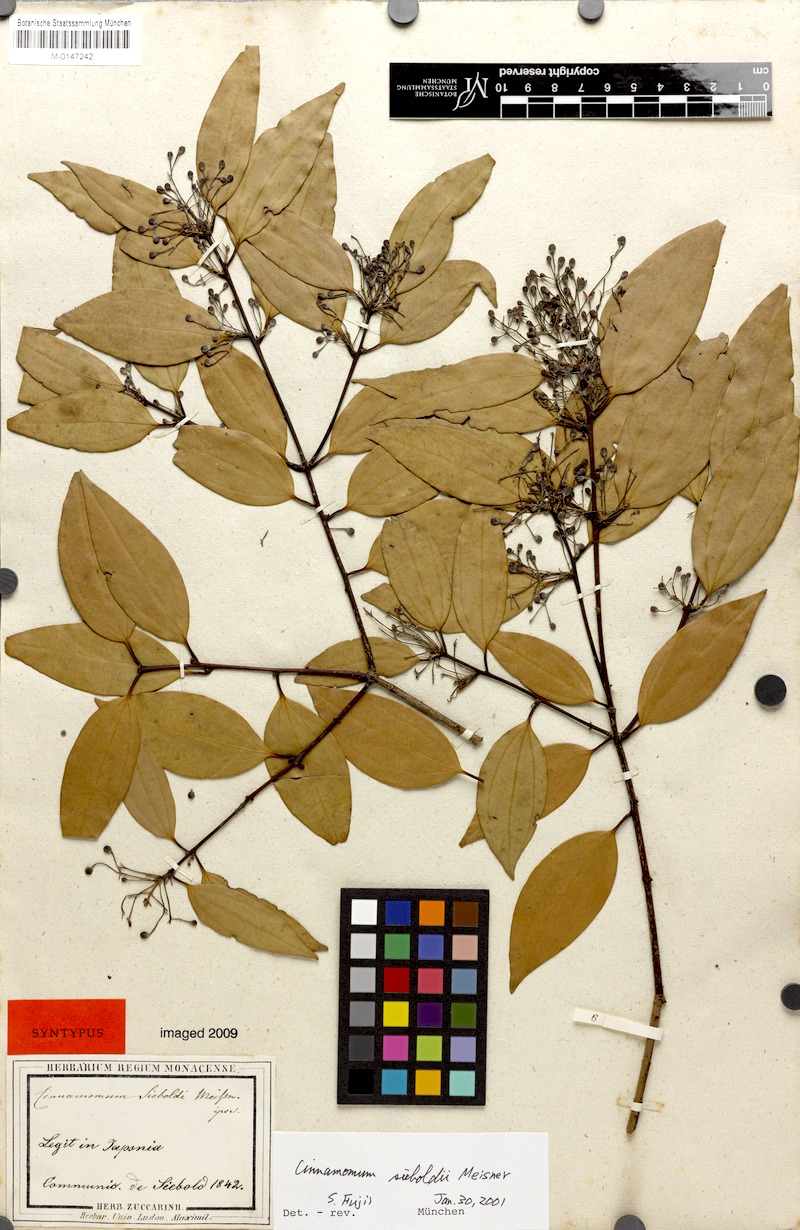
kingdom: Plantae
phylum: Tracheophyta
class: Magnoliopsida
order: Laurales
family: Lauraceae
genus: Cinnamomum
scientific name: Cinnamomum sieboldii
